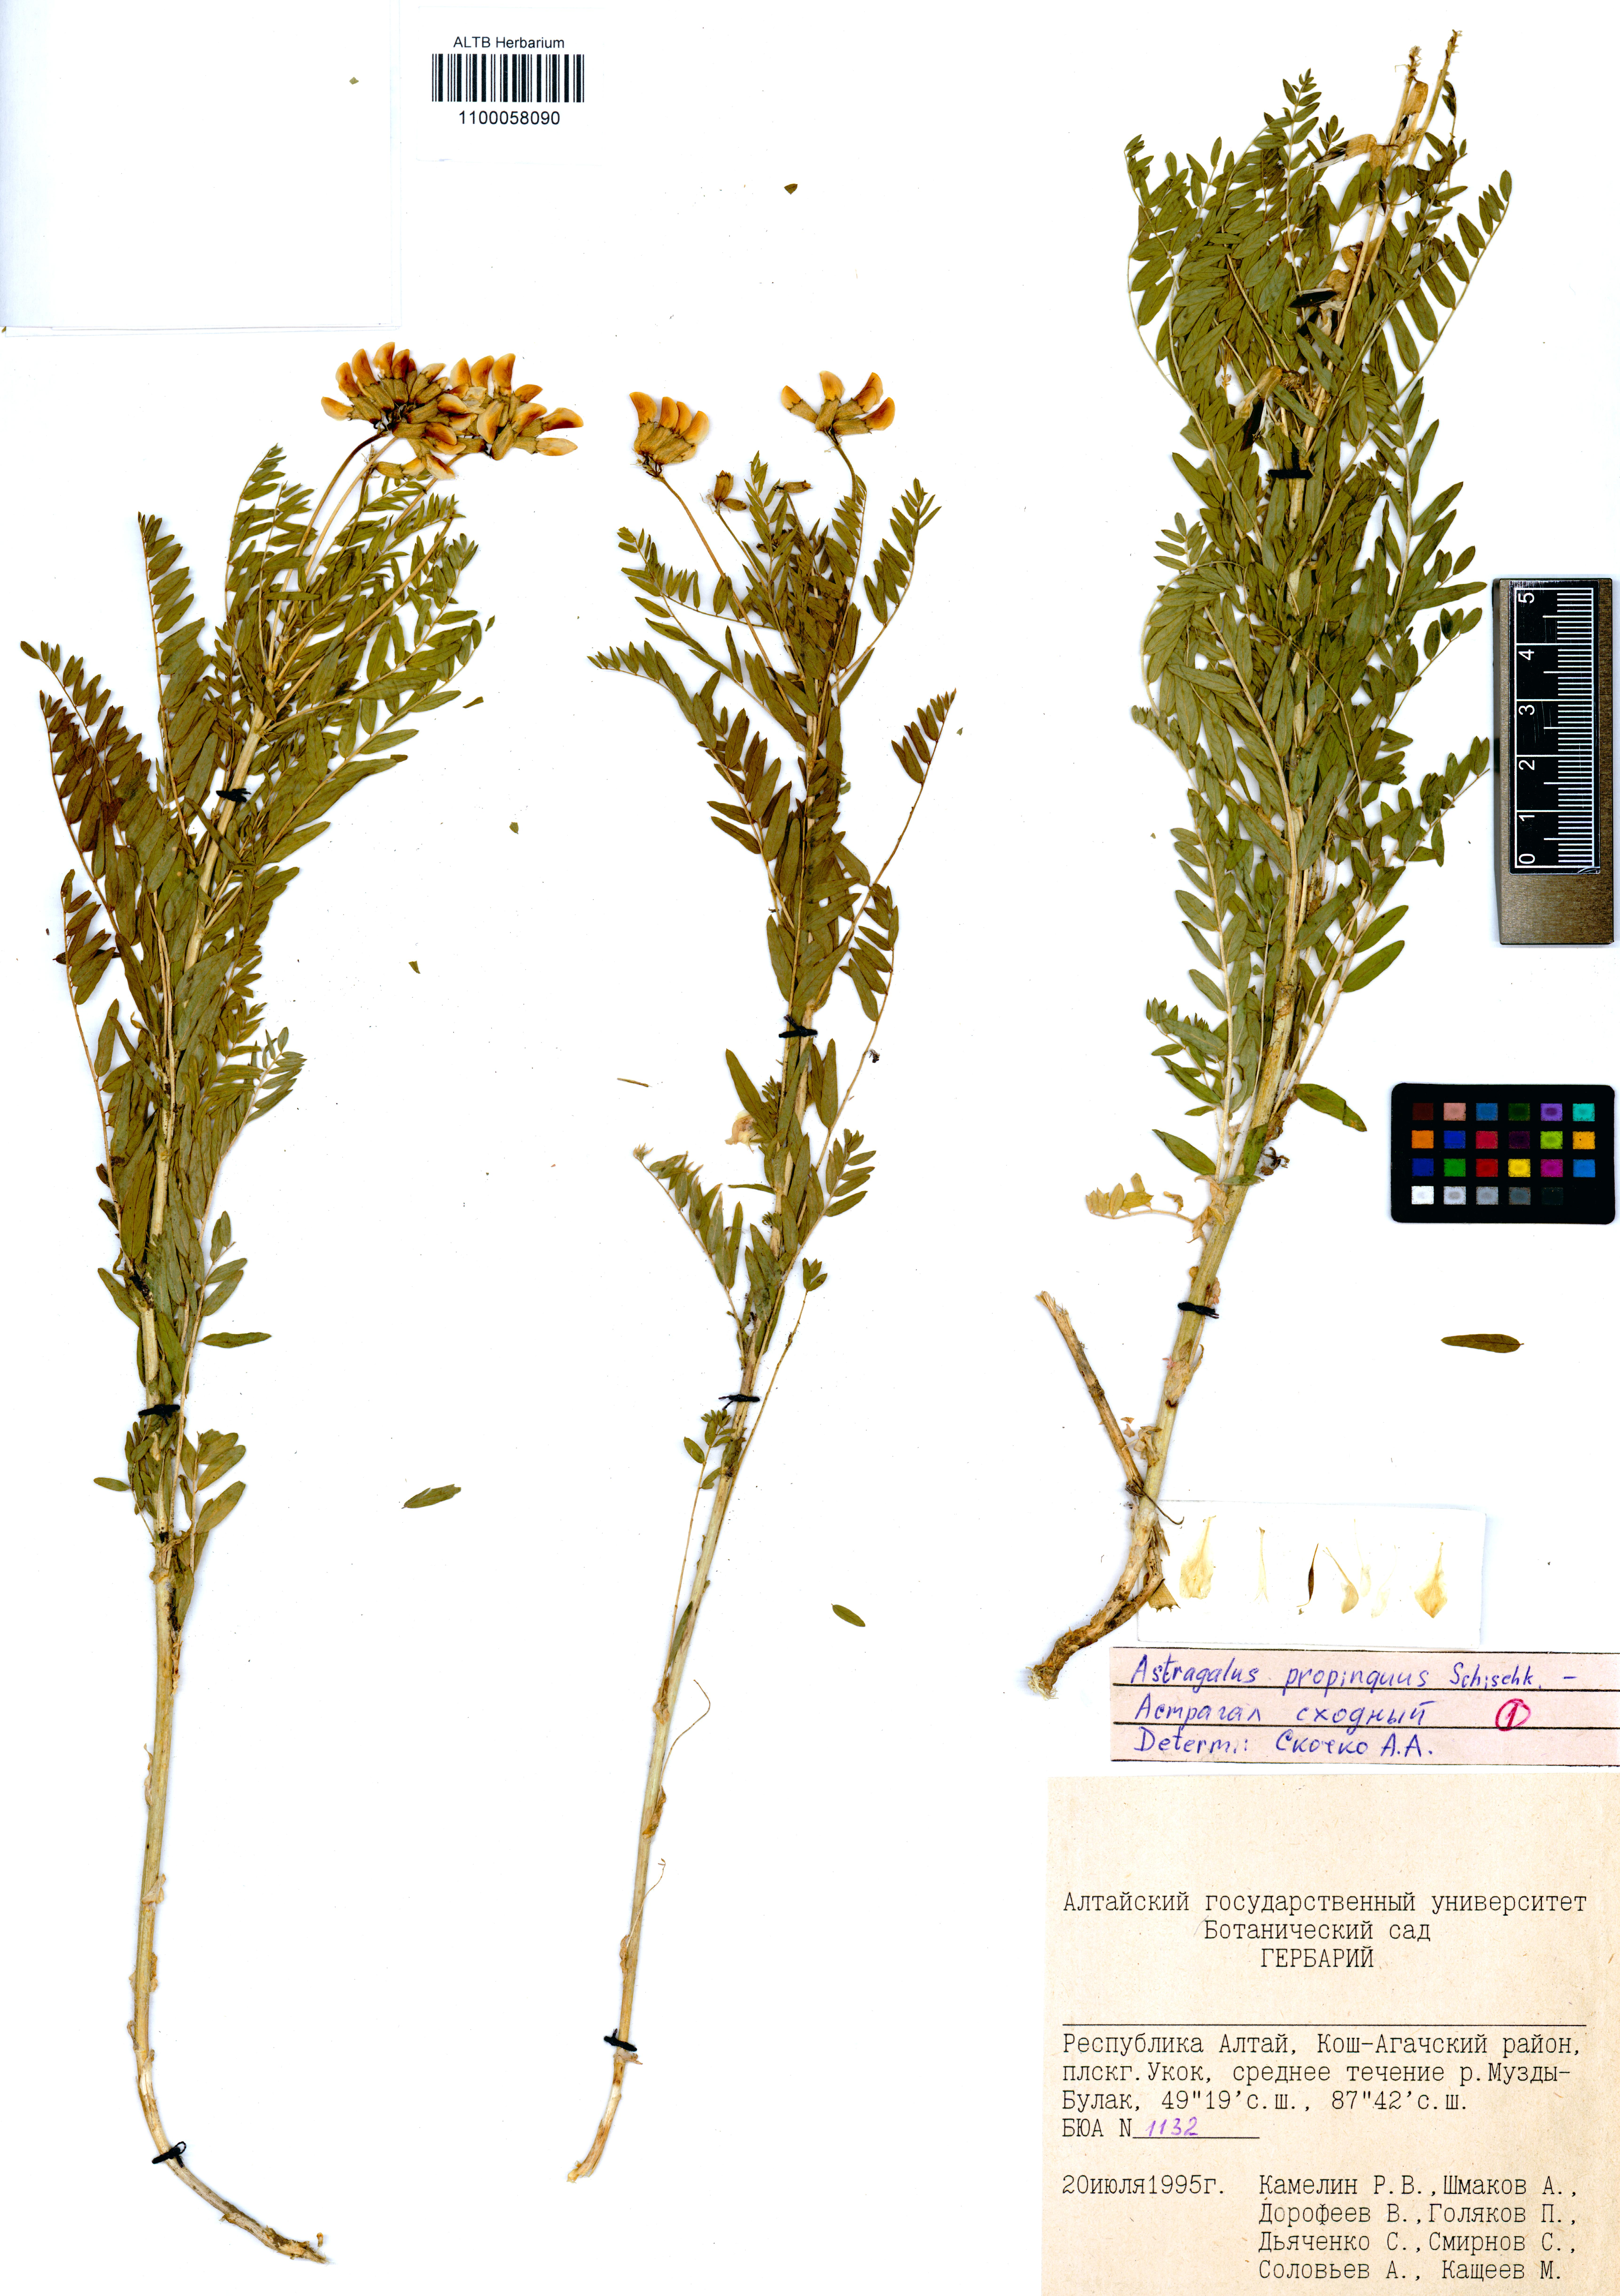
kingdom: Plantae
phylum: Tracheophyta
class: Magnoliopsida
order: Fabales
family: Fabaceae
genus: Astragalus
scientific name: Astragalus mongholicus
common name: Membranous milk-vetch
